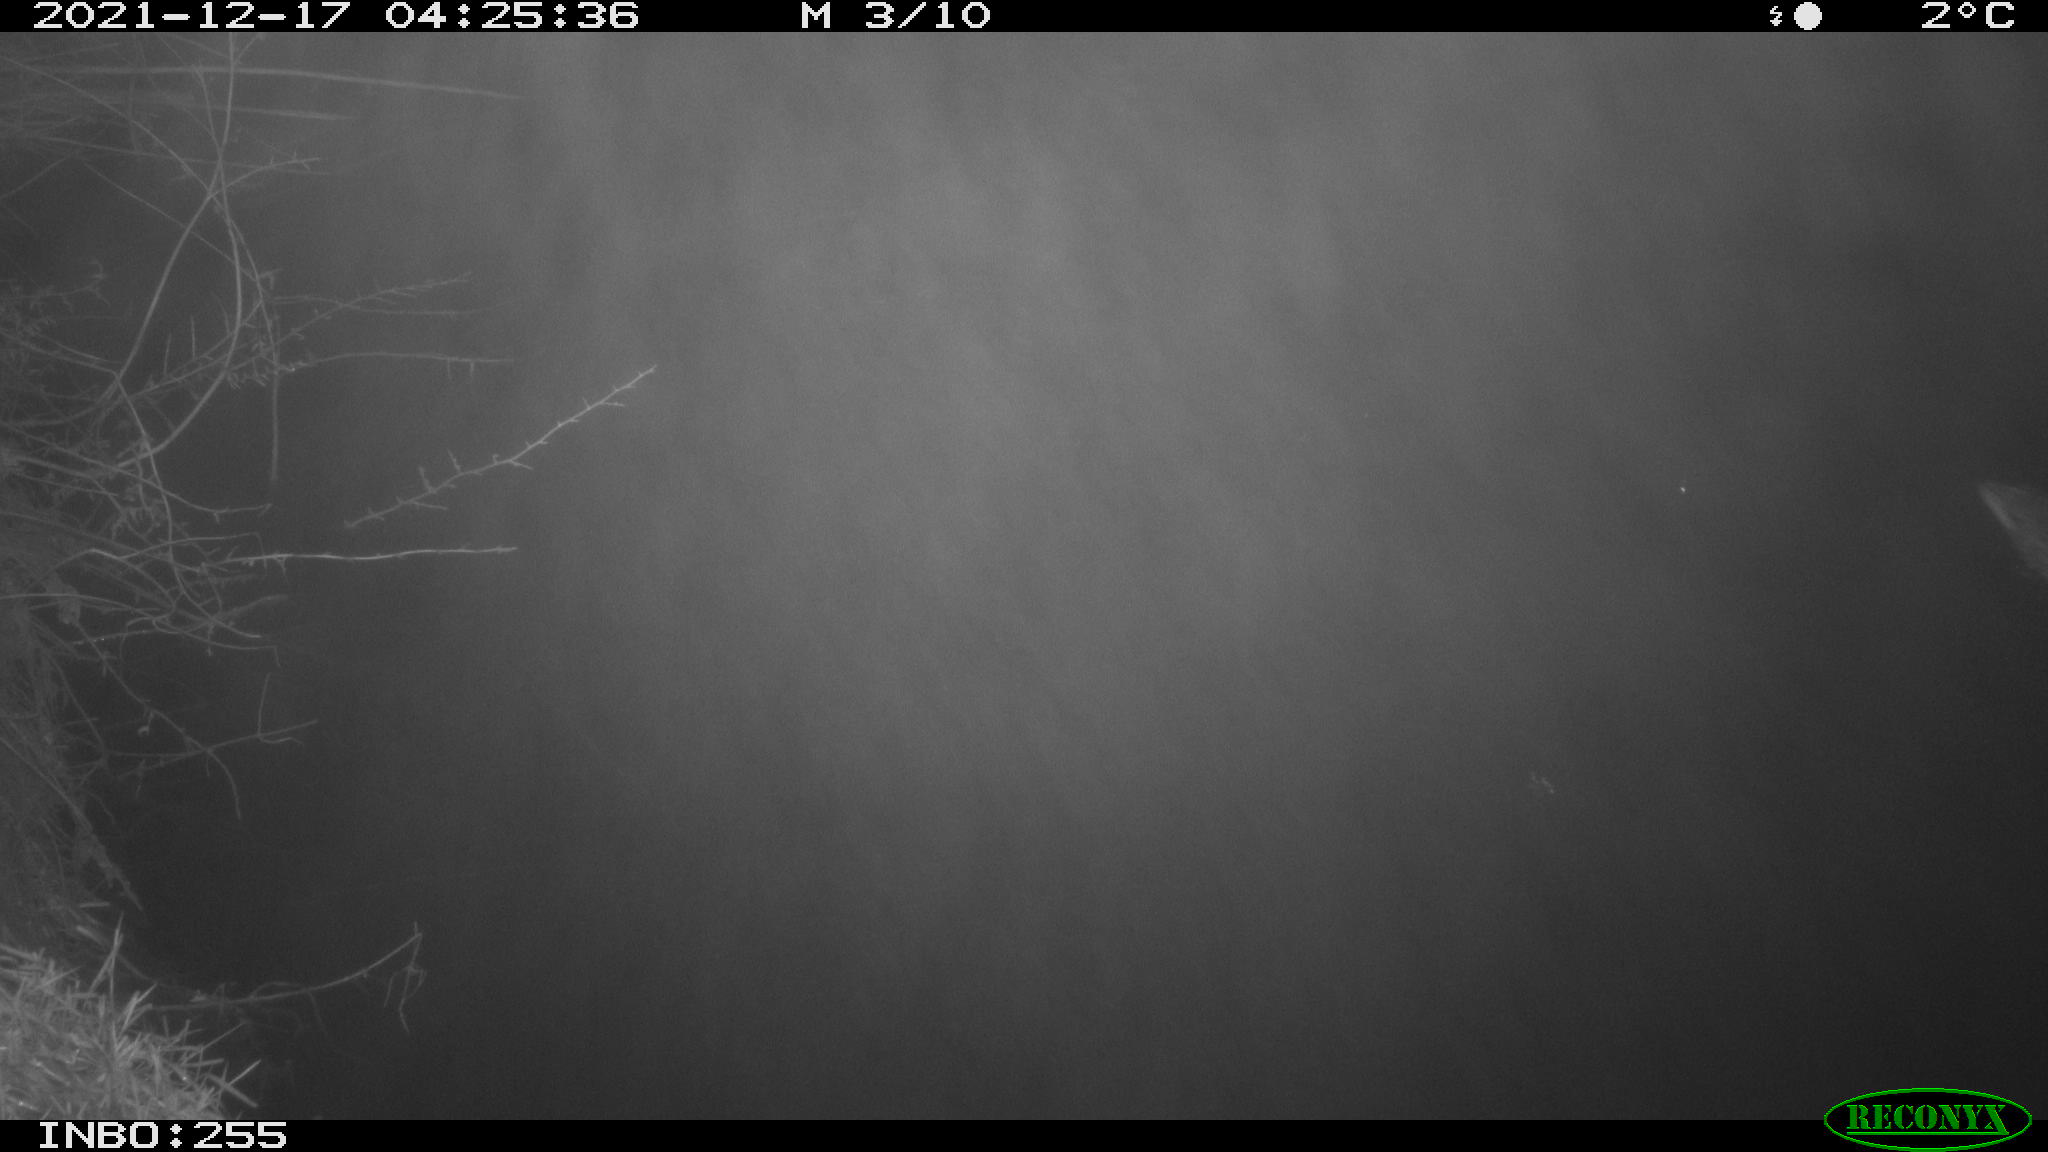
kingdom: Animalia
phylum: Chordata
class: Aves
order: Anseriformes
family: Anatidae
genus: Anas
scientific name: Anas
